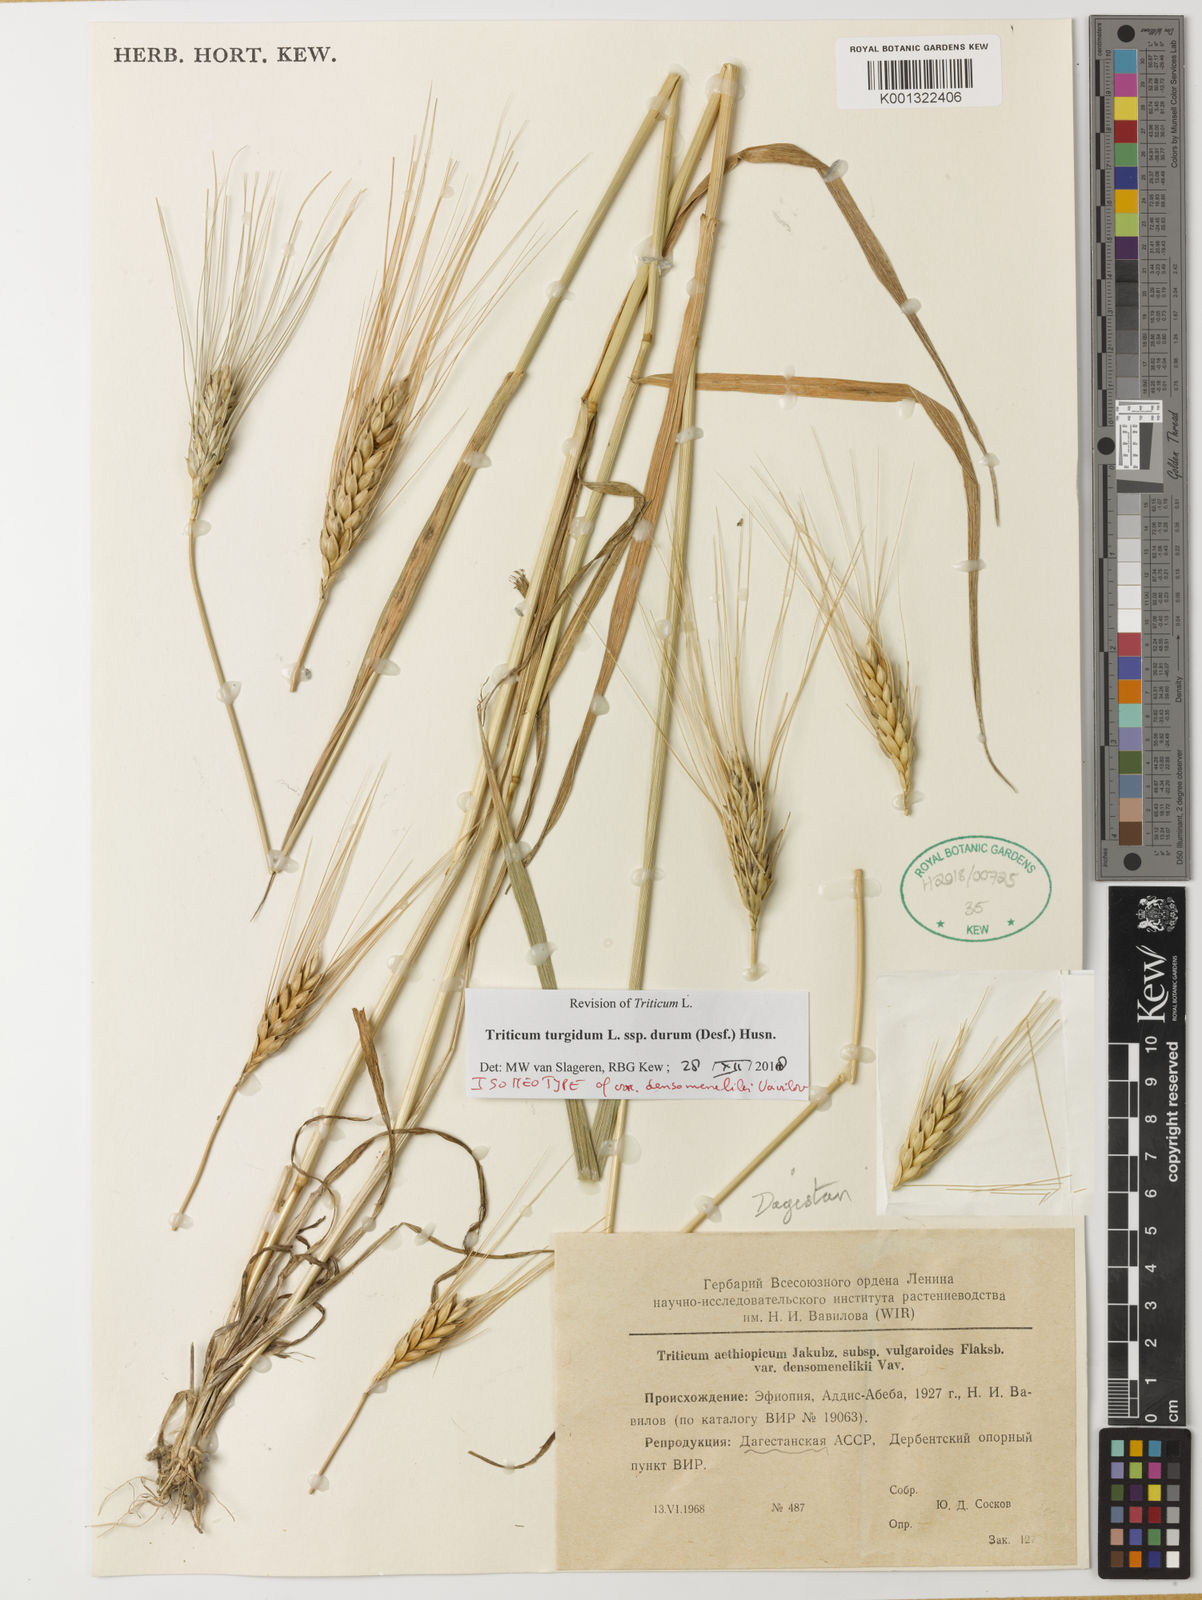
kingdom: Plantae
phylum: Tracheophyta
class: Liliopsida
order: Poales
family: Poaceae
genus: Triticum
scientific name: Triticum turgidum
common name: Rivet wheat
